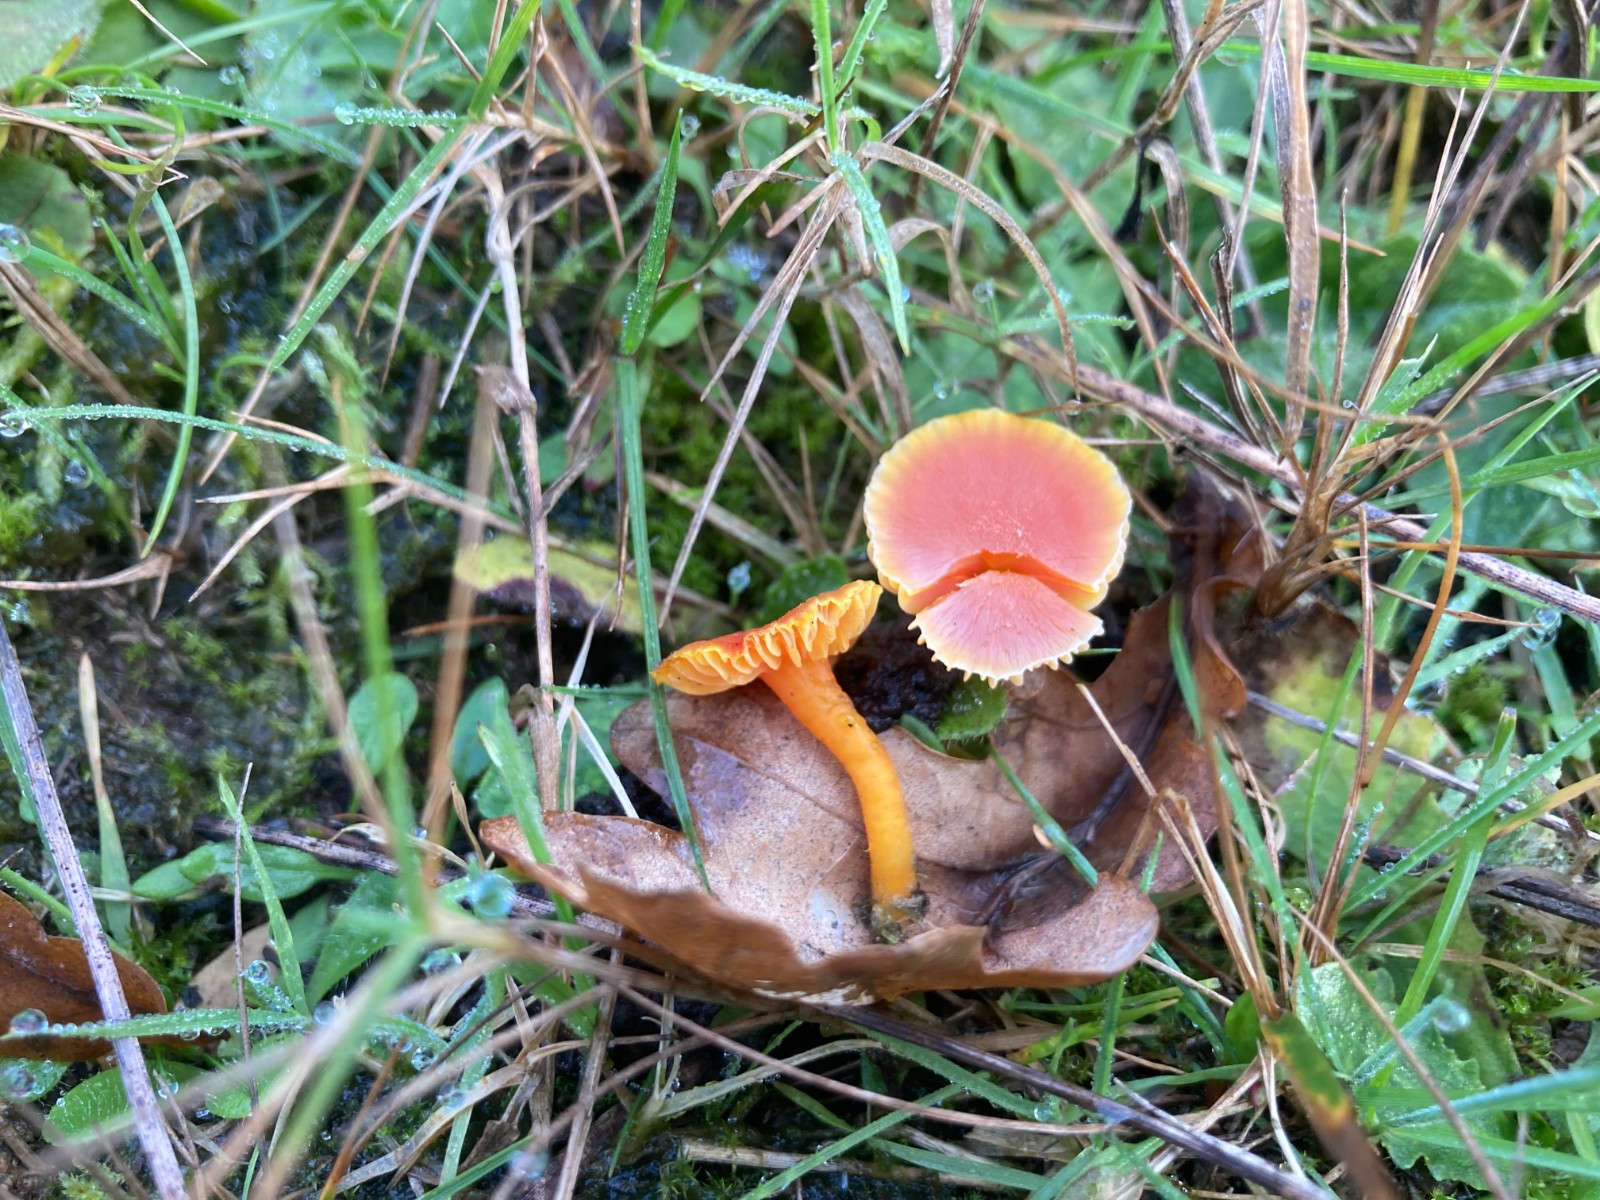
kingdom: Fungi
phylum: Basidiomycota
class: Agaricomycetes
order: Agaricales
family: Hygrophoraceae
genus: Hygrocybe
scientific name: Hygrocybe miniata
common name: mønje-vokshat
